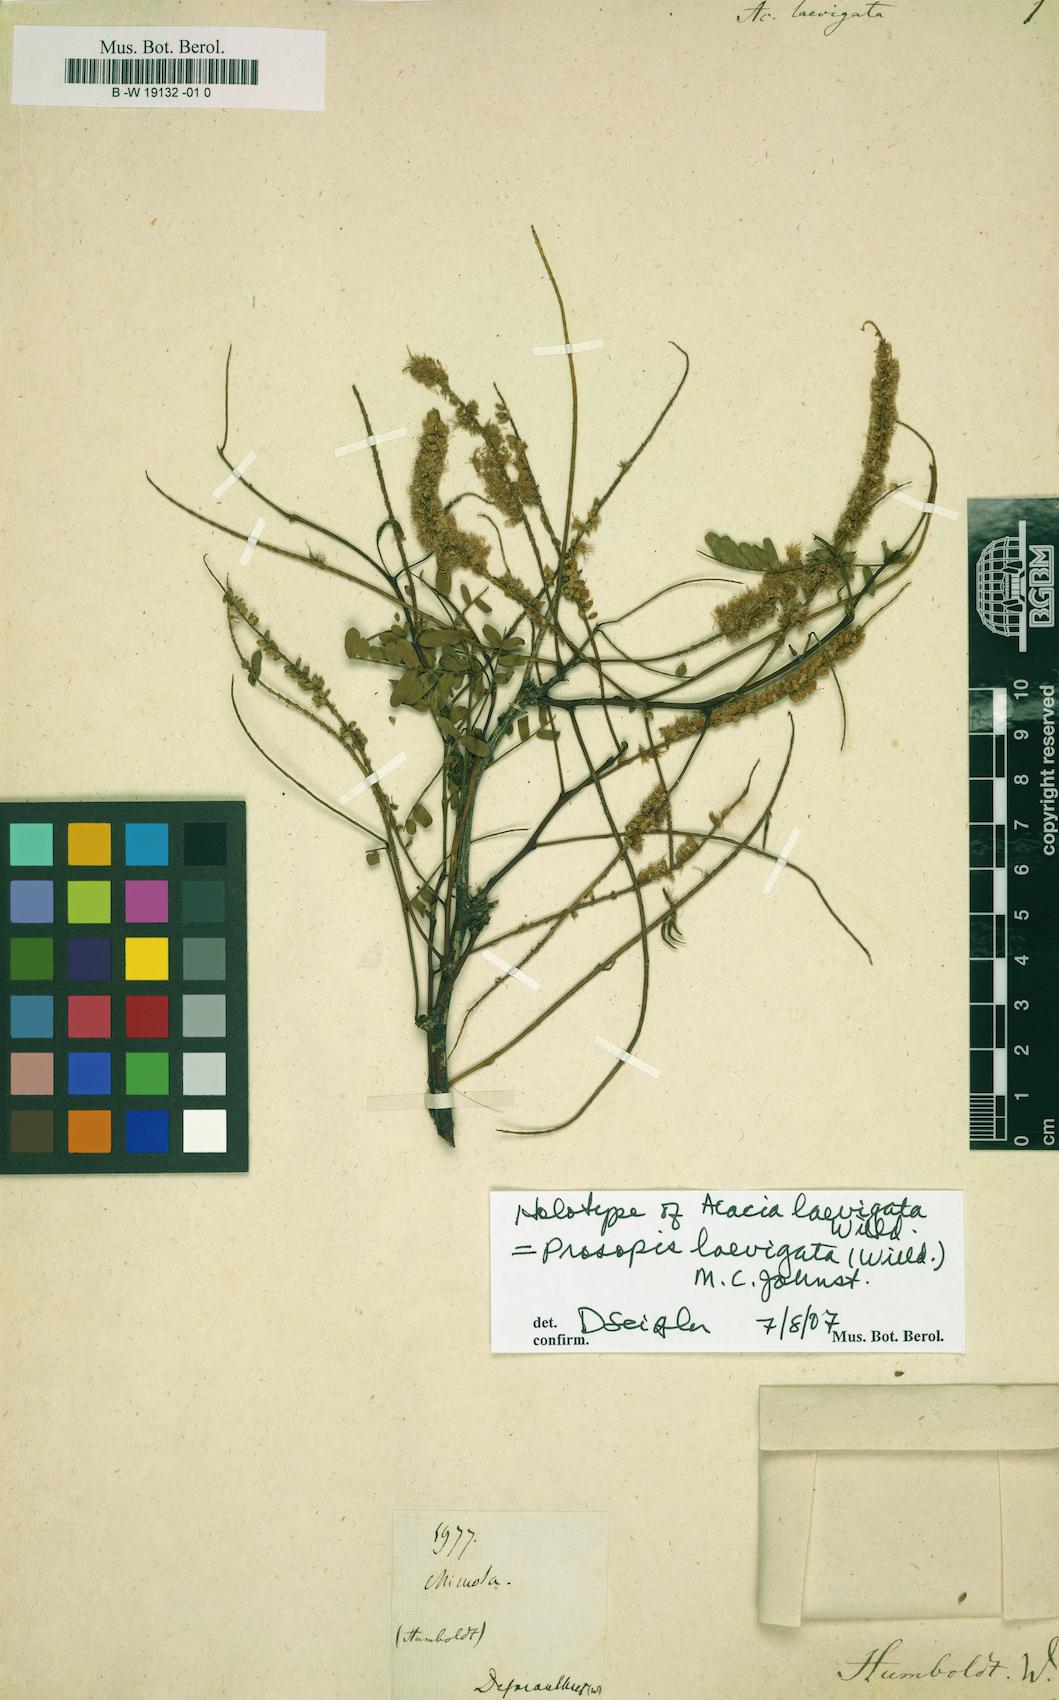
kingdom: Plantae
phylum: Tracheophyta
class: Magnoliopsida
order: Fabales
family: Fabaceae
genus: Prosopis
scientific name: Prosopis laevigata
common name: Smooth mesquite
